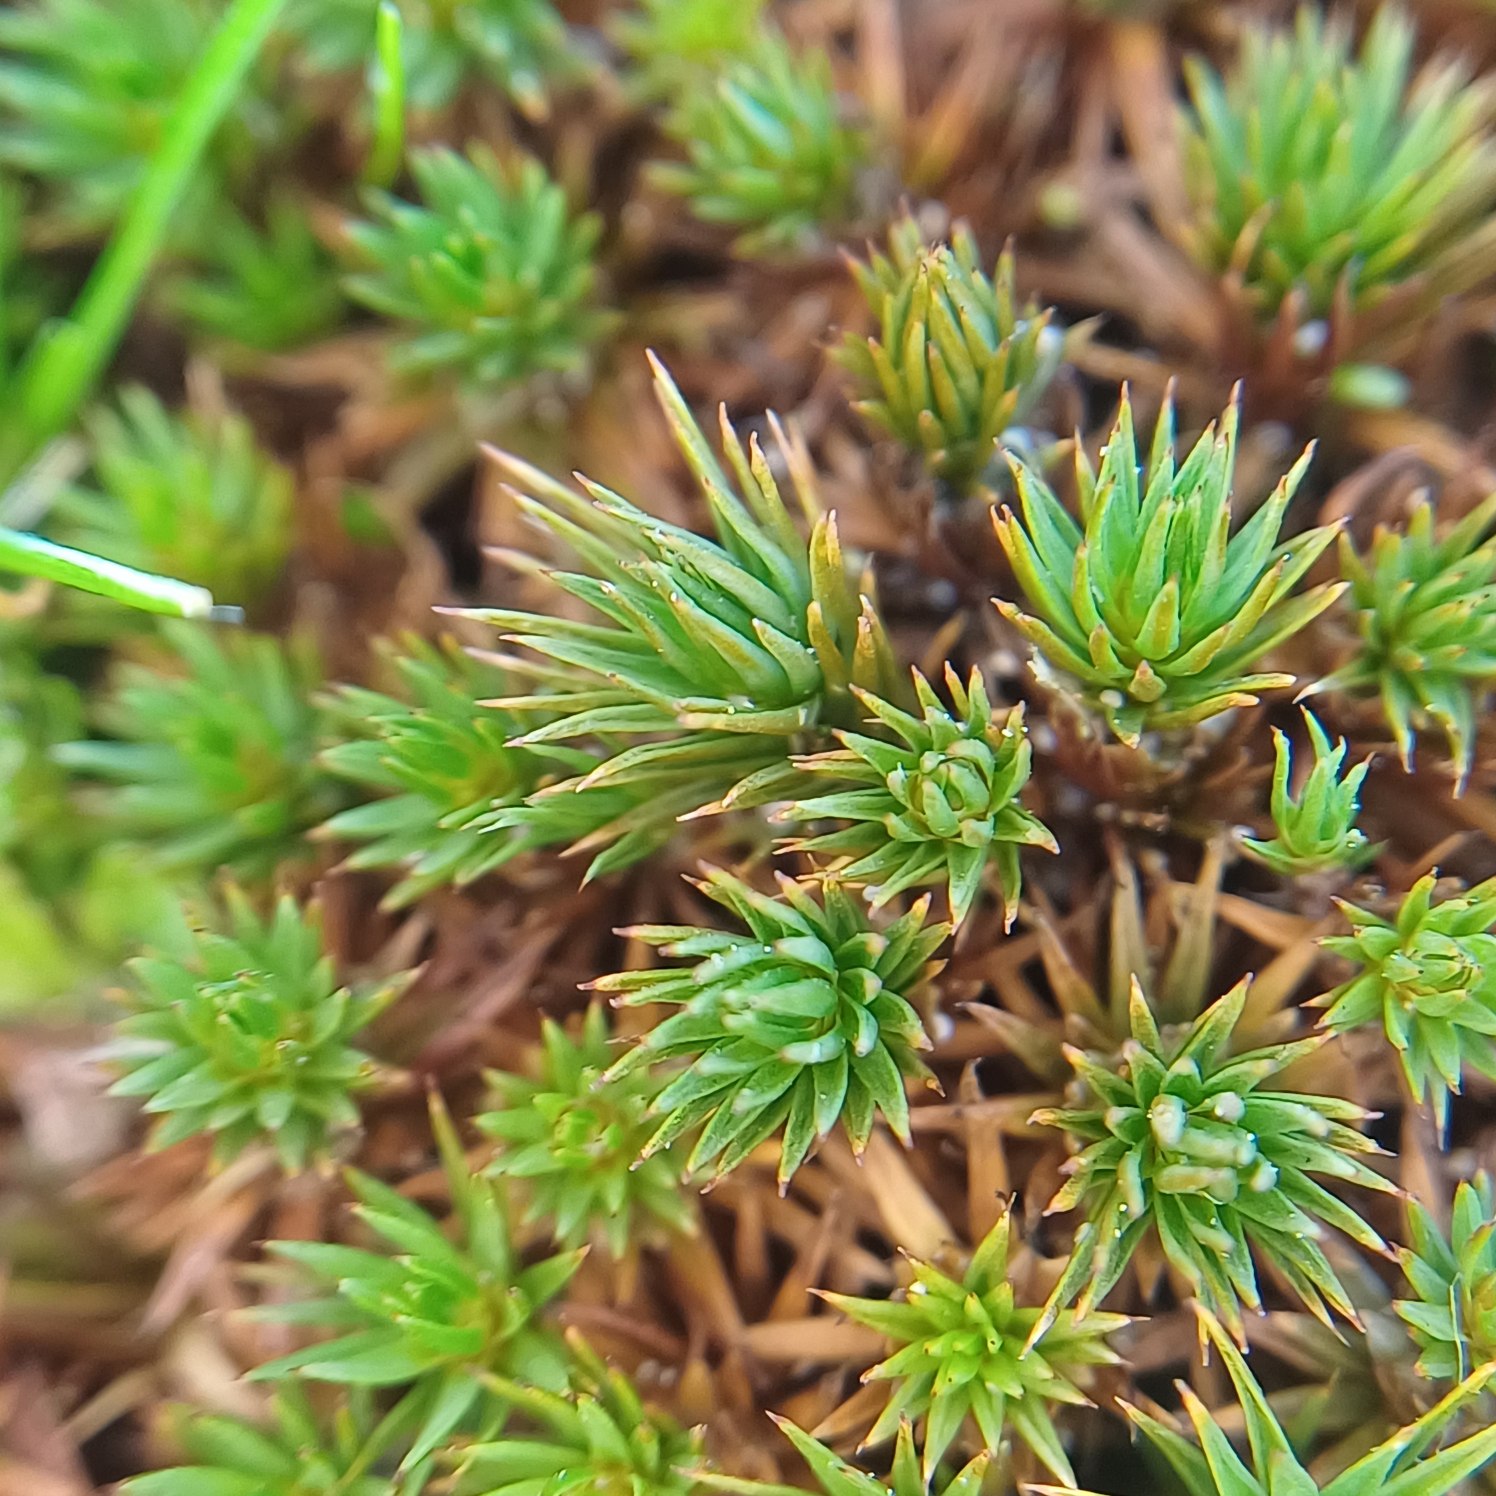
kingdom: Plantae
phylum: Bryophyta
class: Polytrichopsida
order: Polytrichales
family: Polytrichaceae
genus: Polytrichum
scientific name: Polytrichum juniperinum
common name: Ene-jomfruhår
